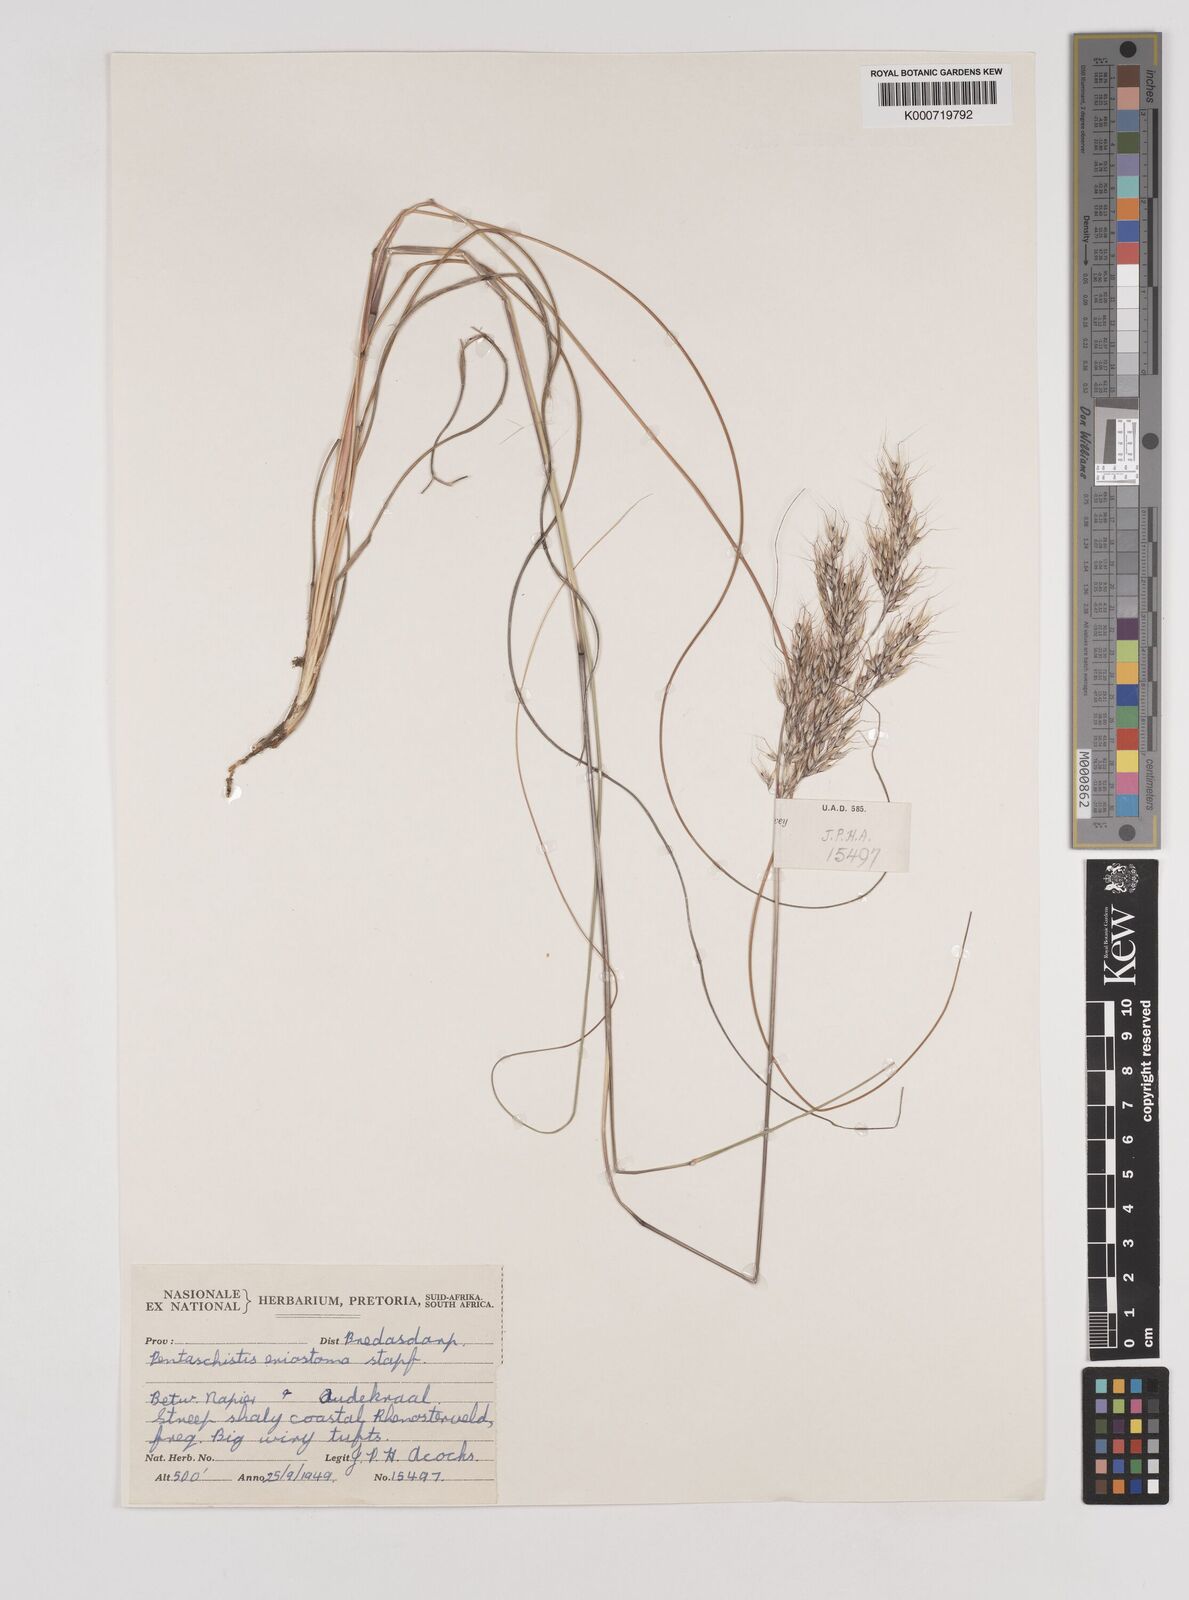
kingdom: Plantae
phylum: Tracheophyta
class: Liliopsida
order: Poales
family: Poaceae
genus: Pentameris
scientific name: Pentameris eriostoma
